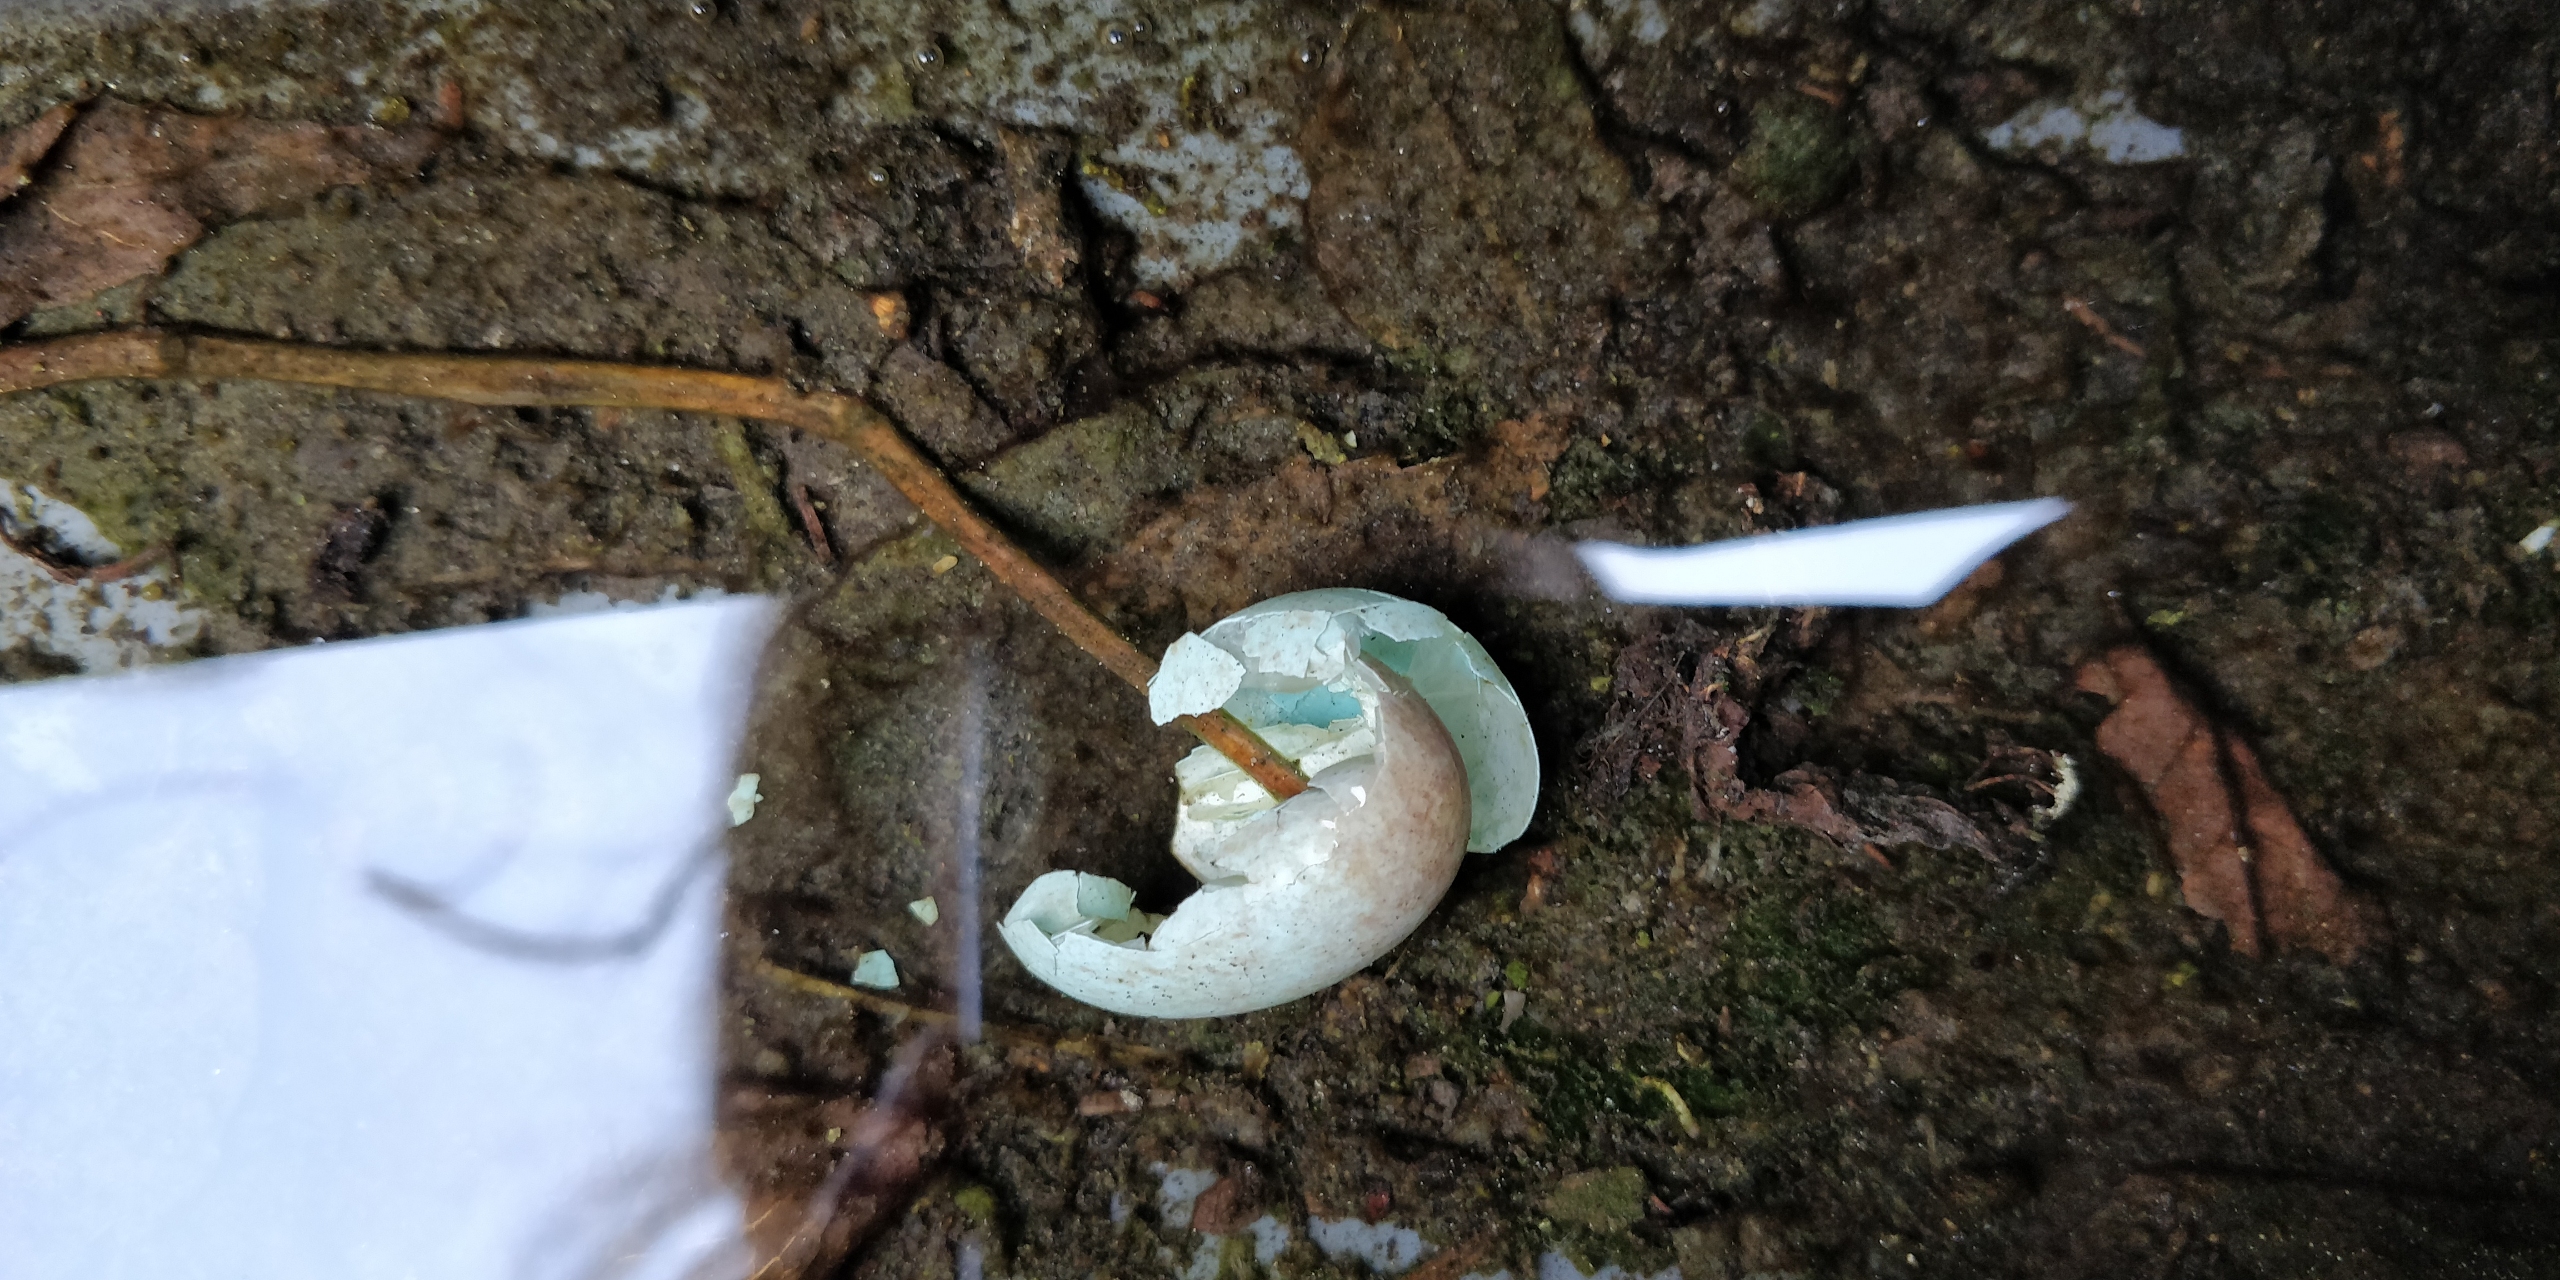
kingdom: Animalia
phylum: Chordata
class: Aves
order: Passeriformes
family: Turdidae
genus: Turdus
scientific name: Turdus merula
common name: Solsort
